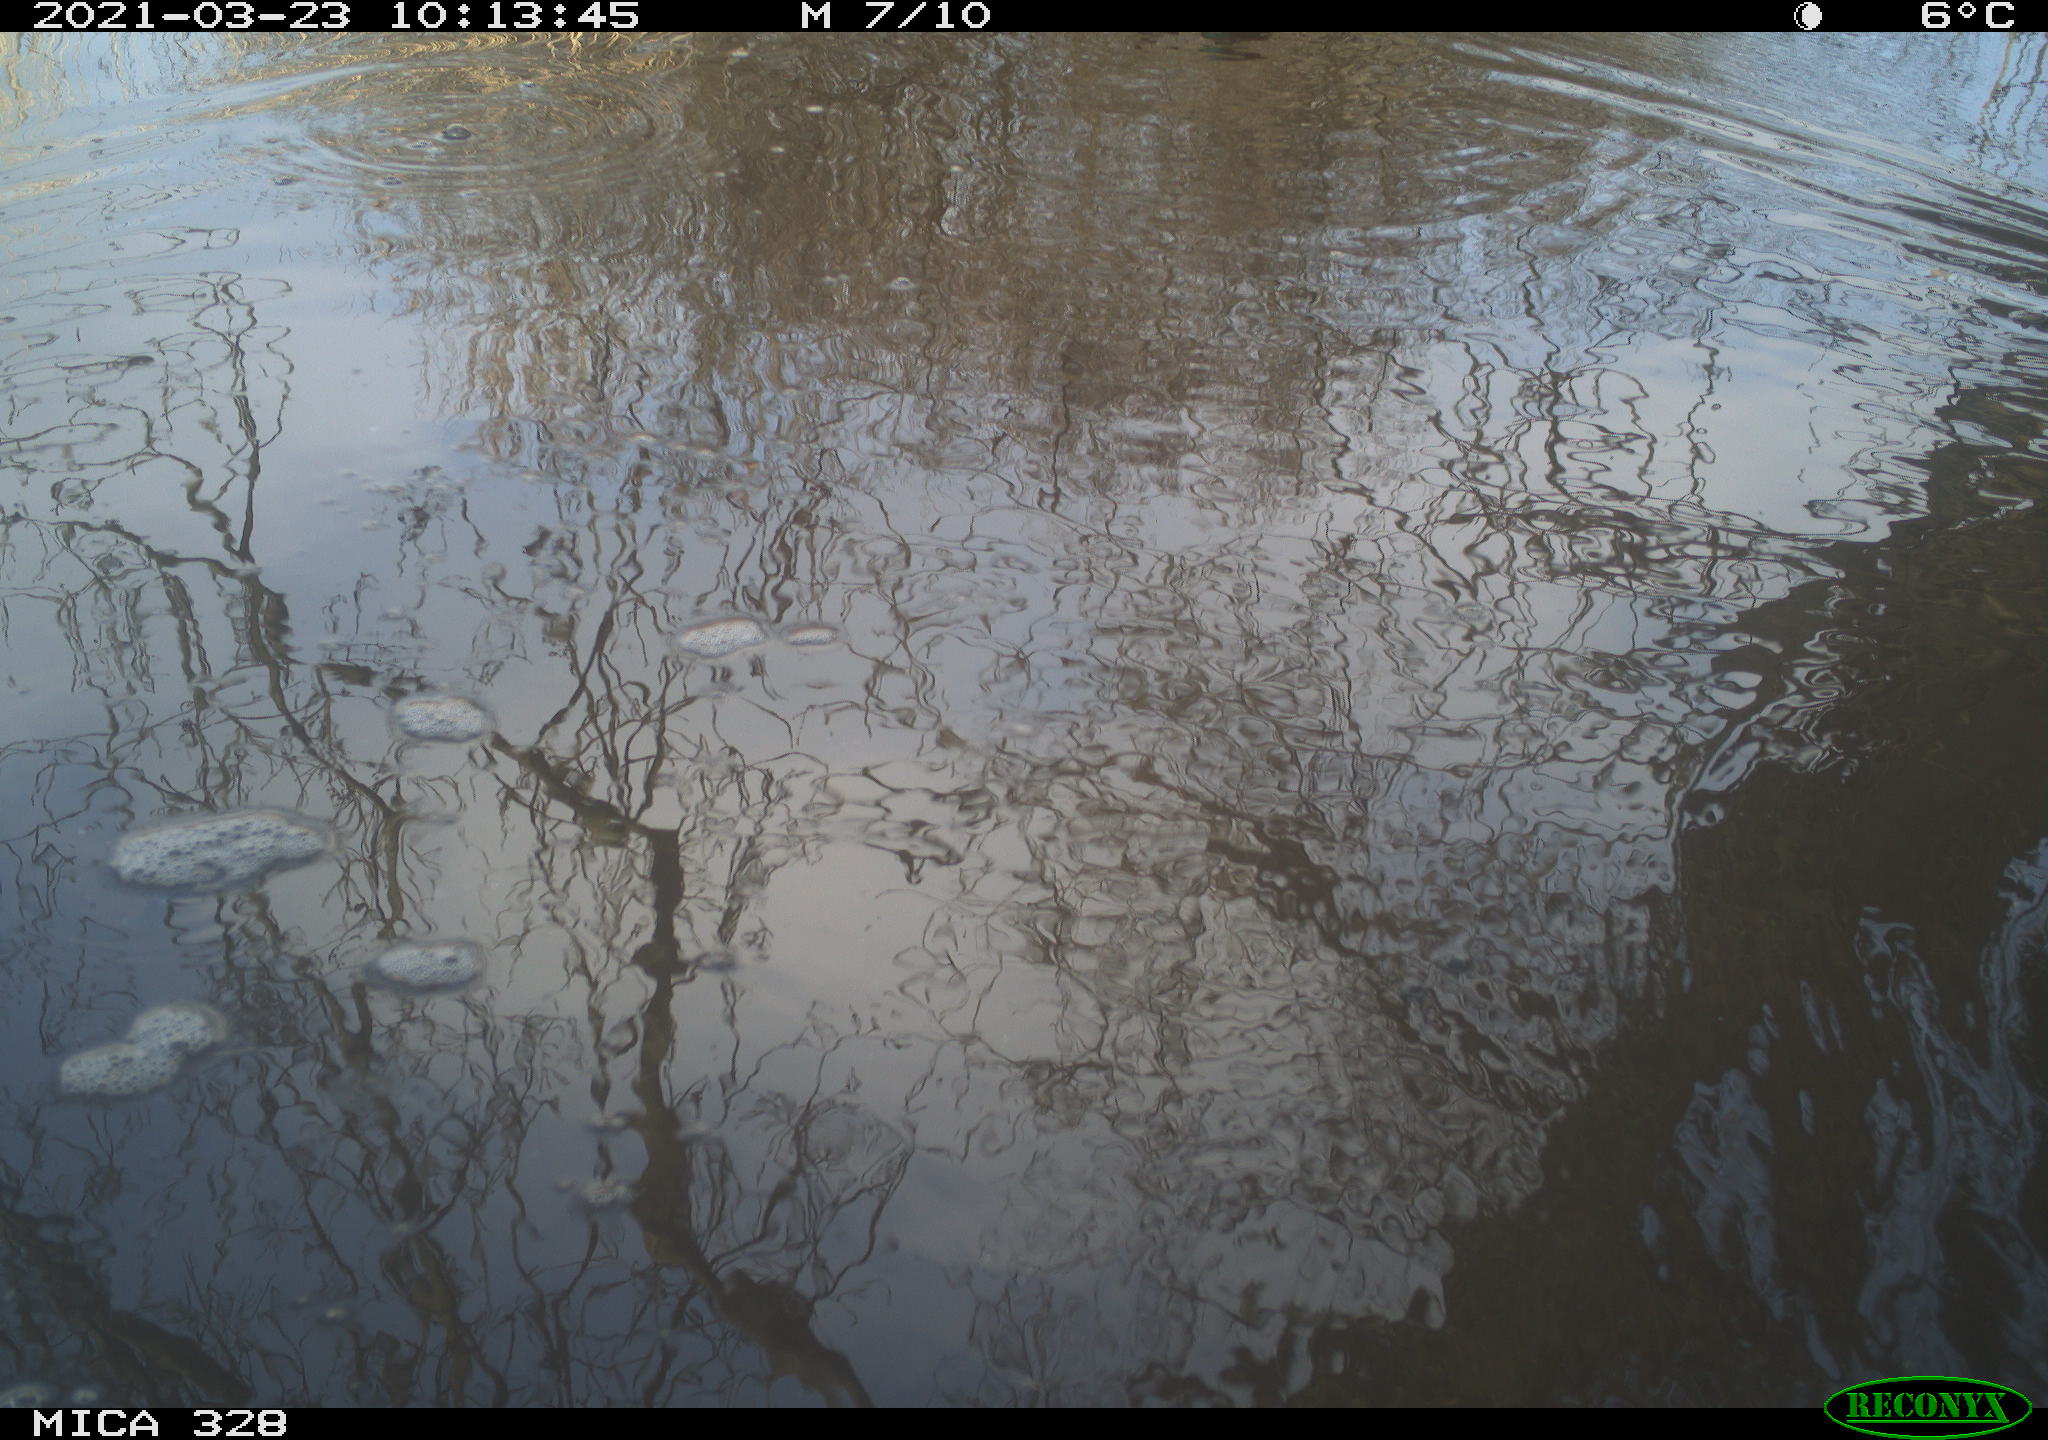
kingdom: Animalia
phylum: Chordata
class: Aves
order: Anseriformes
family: Anatidae
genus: Anas
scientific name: Anas platyrhynchos
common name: Mallard
